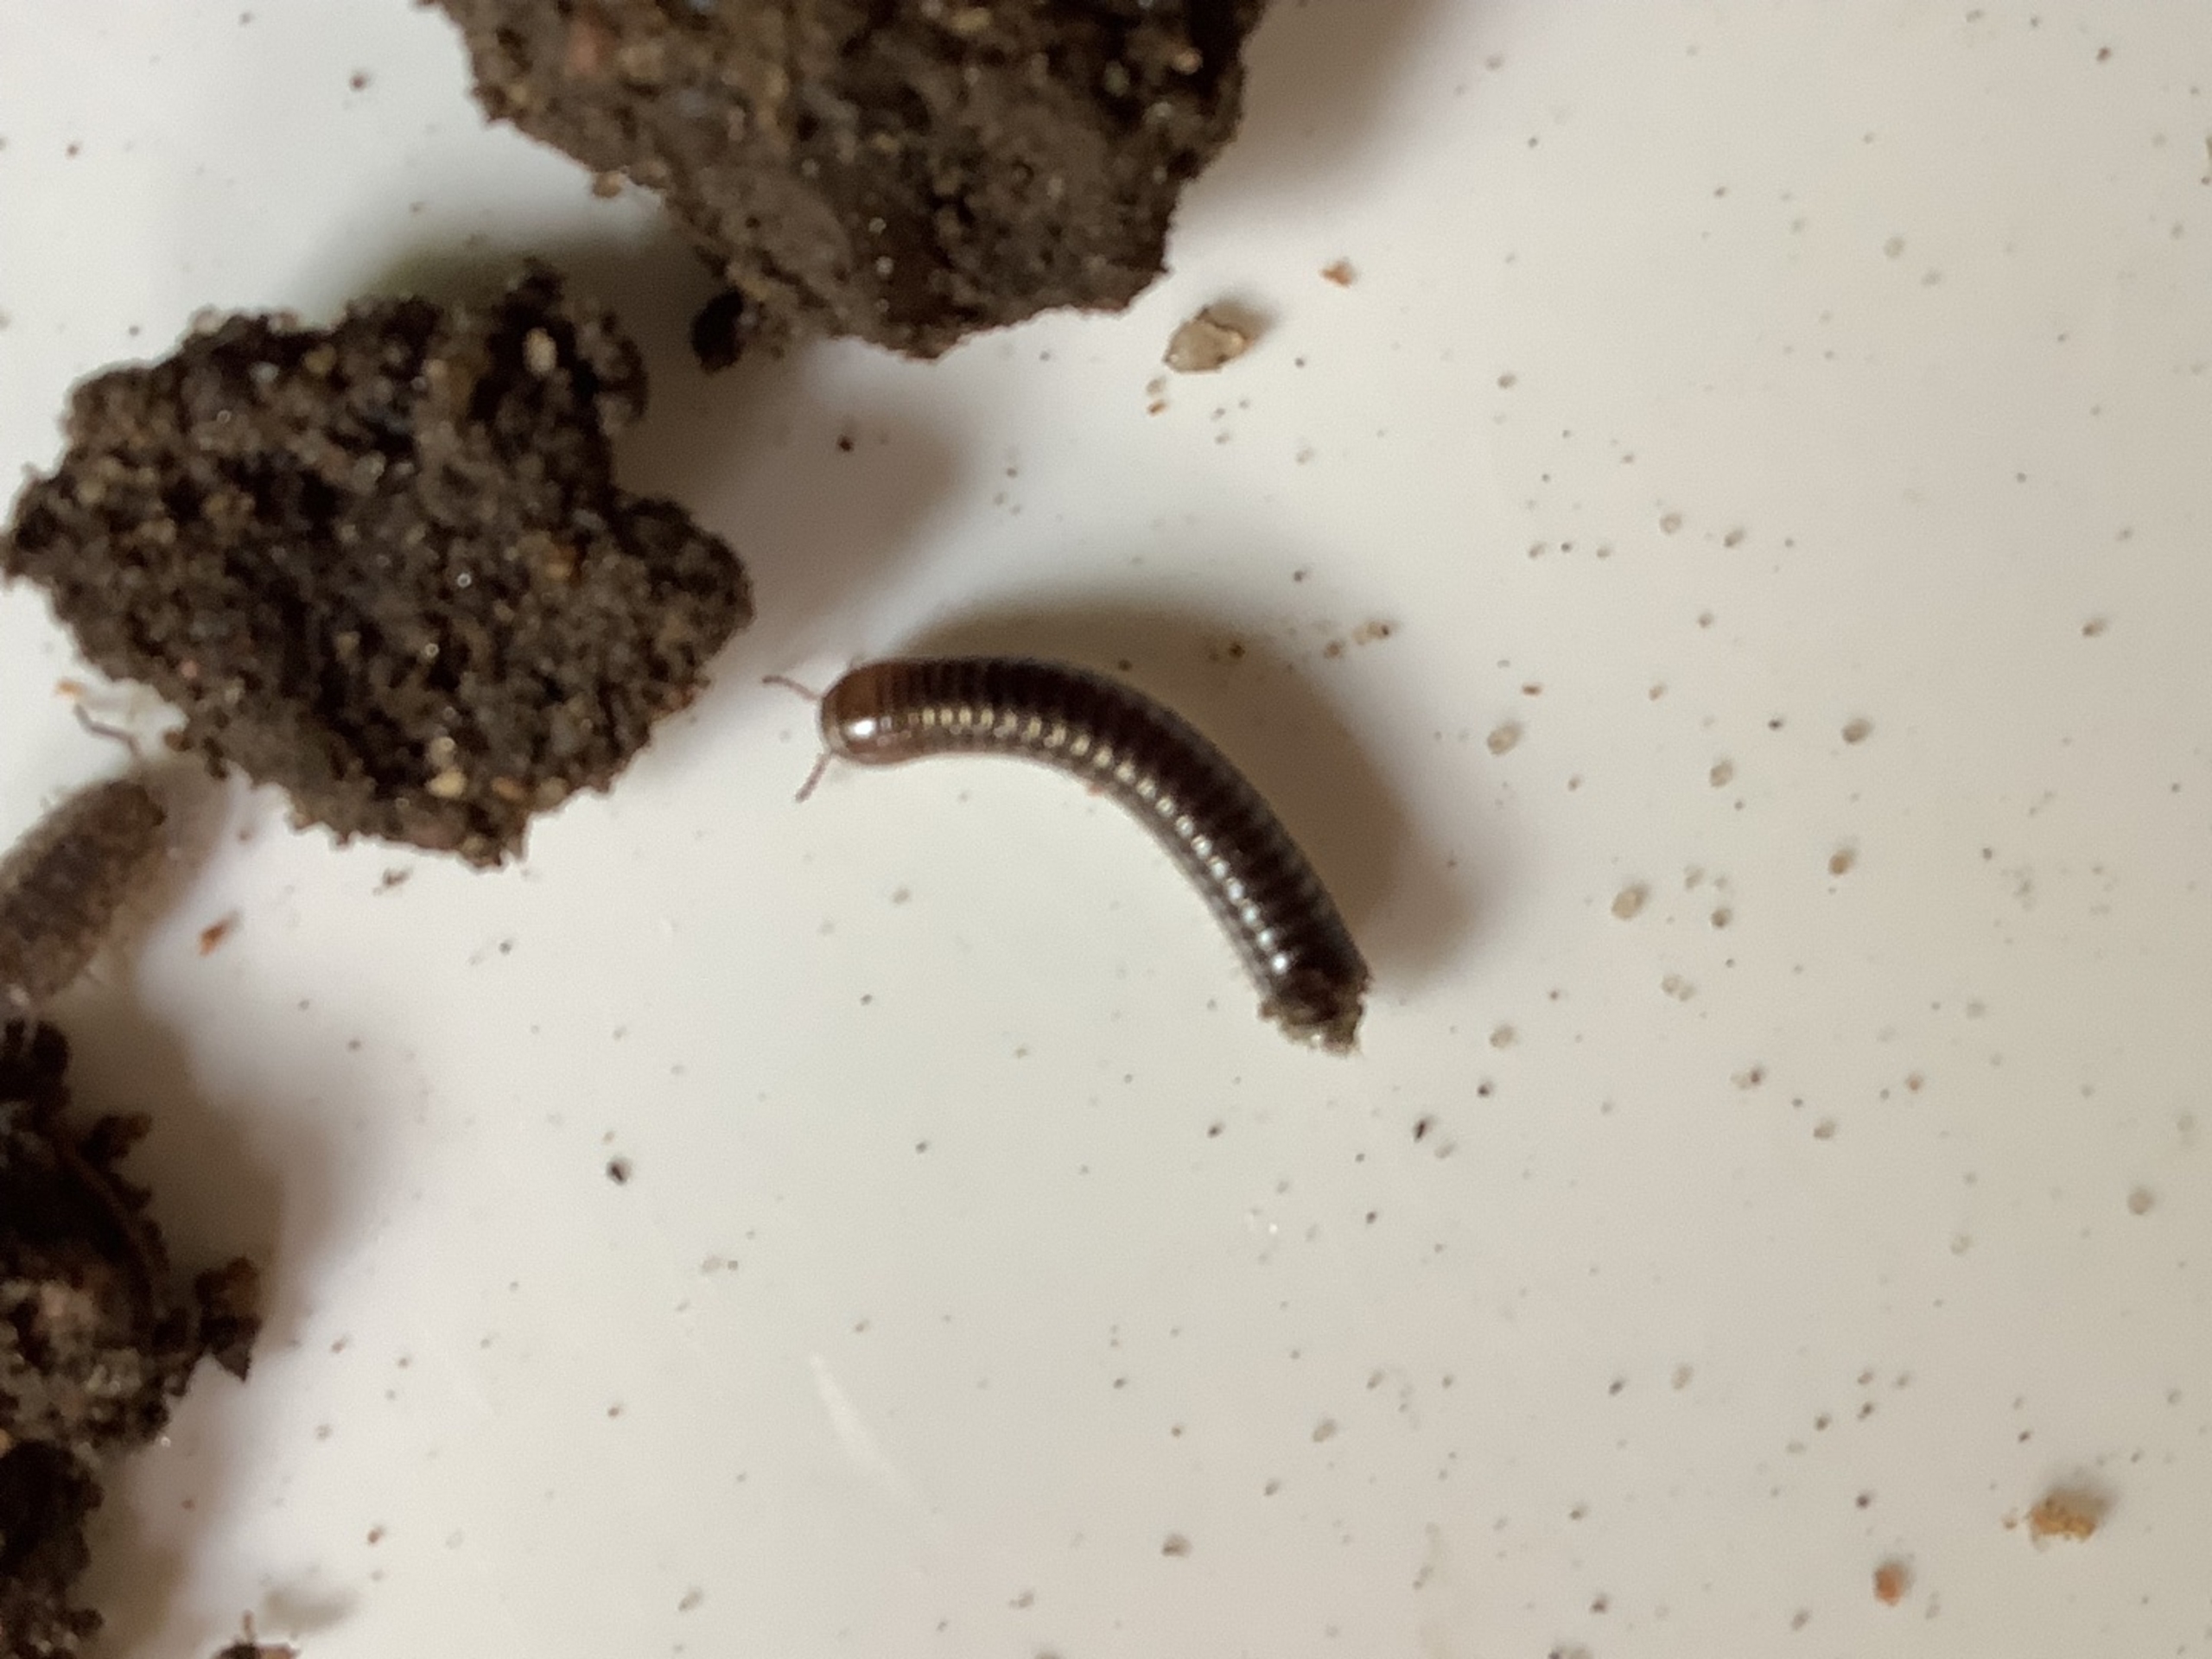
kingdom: Animalia
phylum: Arthropoda
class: Diplopoda
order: Julida
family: Julidae
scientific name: Julidae
